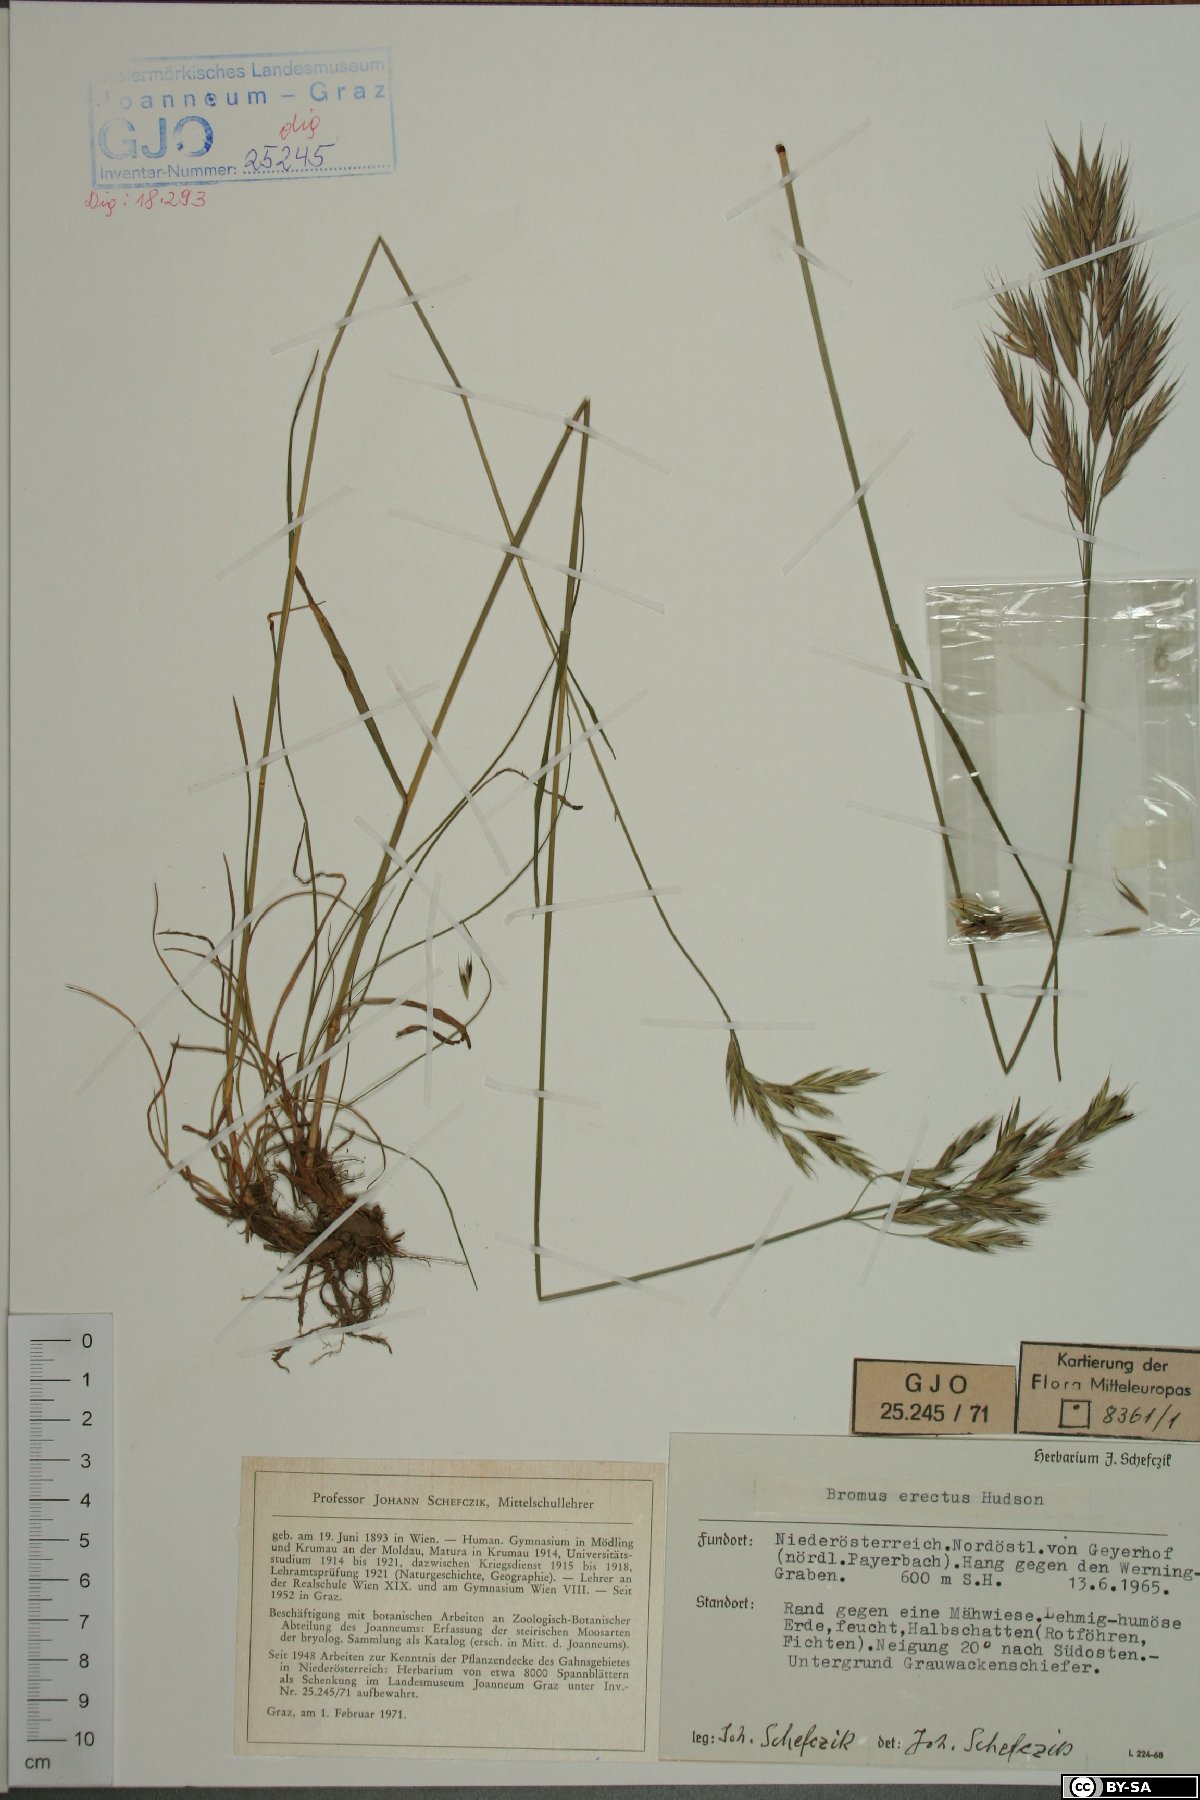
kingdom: Plantae
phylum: Tracheophyta
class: Liliopsida
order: Poales
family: Poaceae
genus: Bromus
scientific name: Bromus erectus
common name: Erect brome
